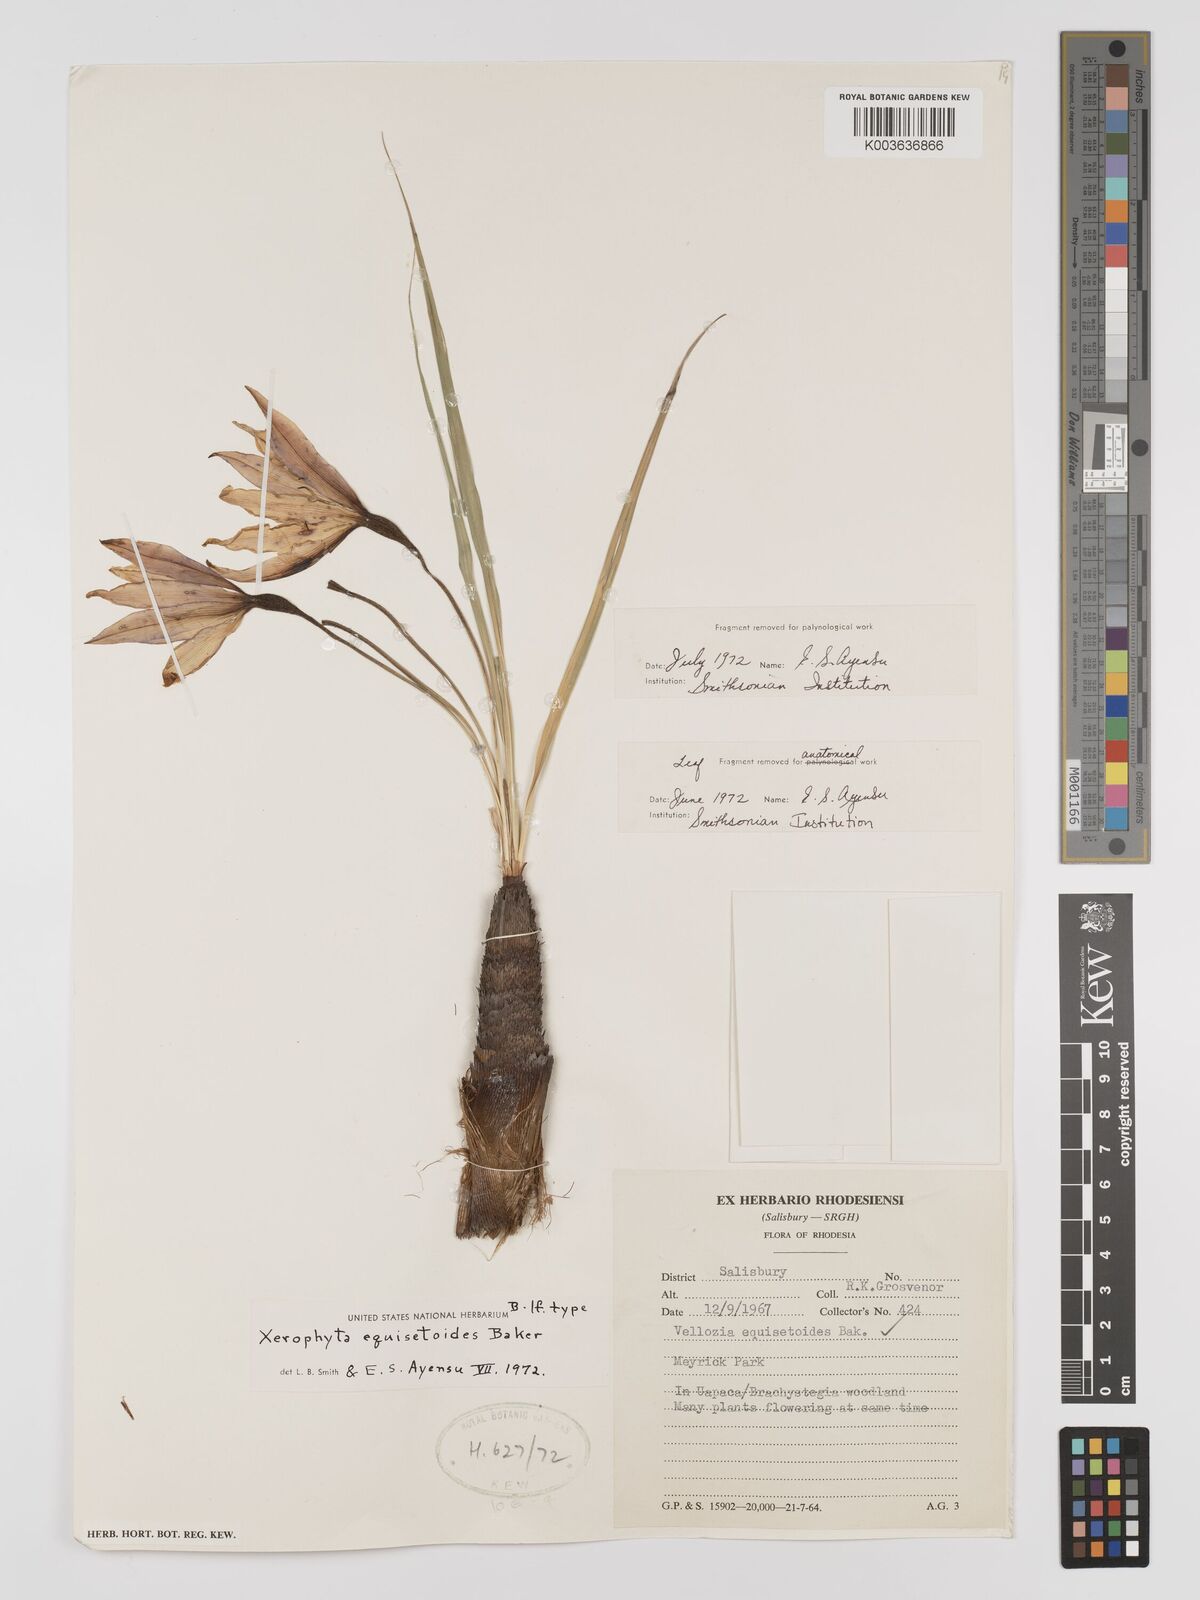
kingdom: Plantae
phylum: Tracheophyta
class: Liliopsida
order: Pandanales
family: Velloziaceae
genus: Xerophyta
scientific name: Xerophyta equisetoides
